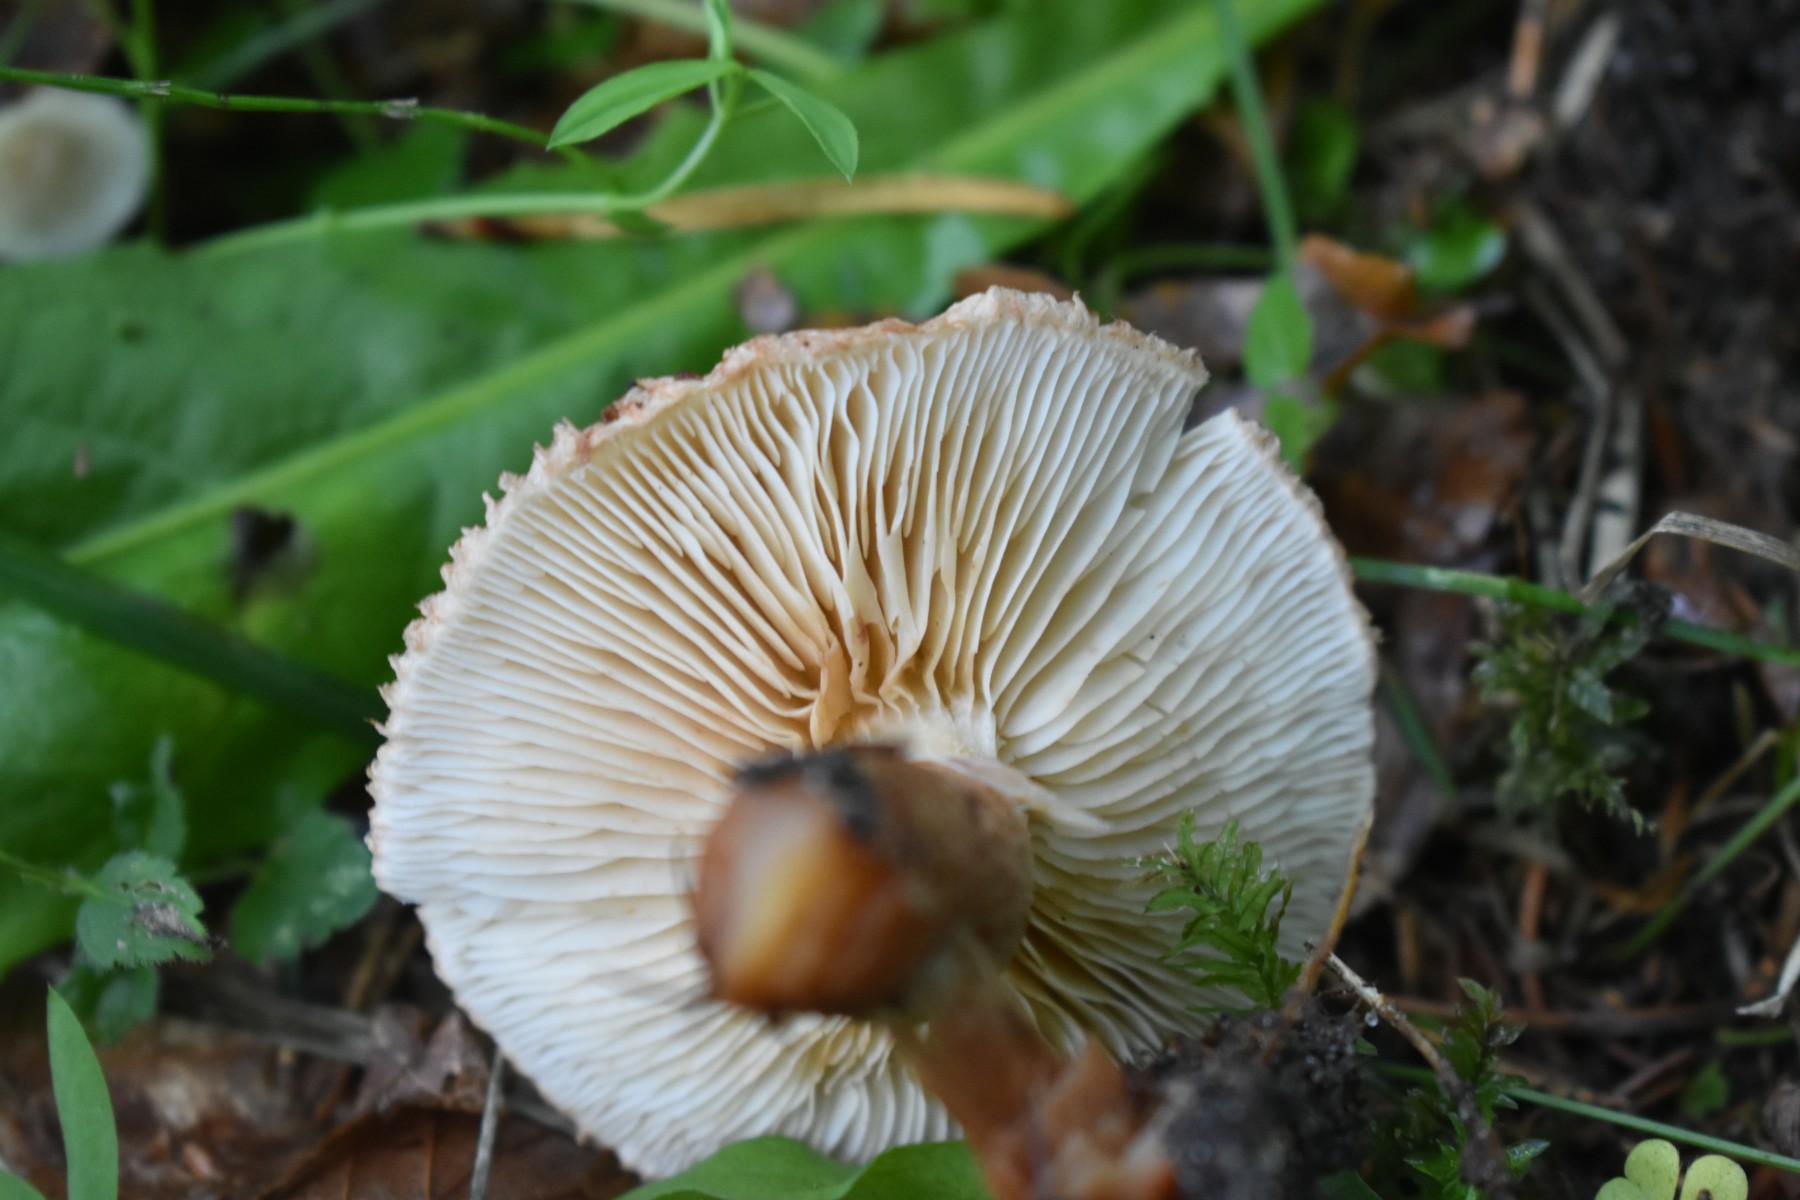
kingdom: Fungi
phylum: Basidiomycota
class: Agaricomycetes
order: Agaricales
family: Tricholomataceae
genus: Tricholoma
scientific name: Tricholoma vaccinum
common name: ko-ridderhat
